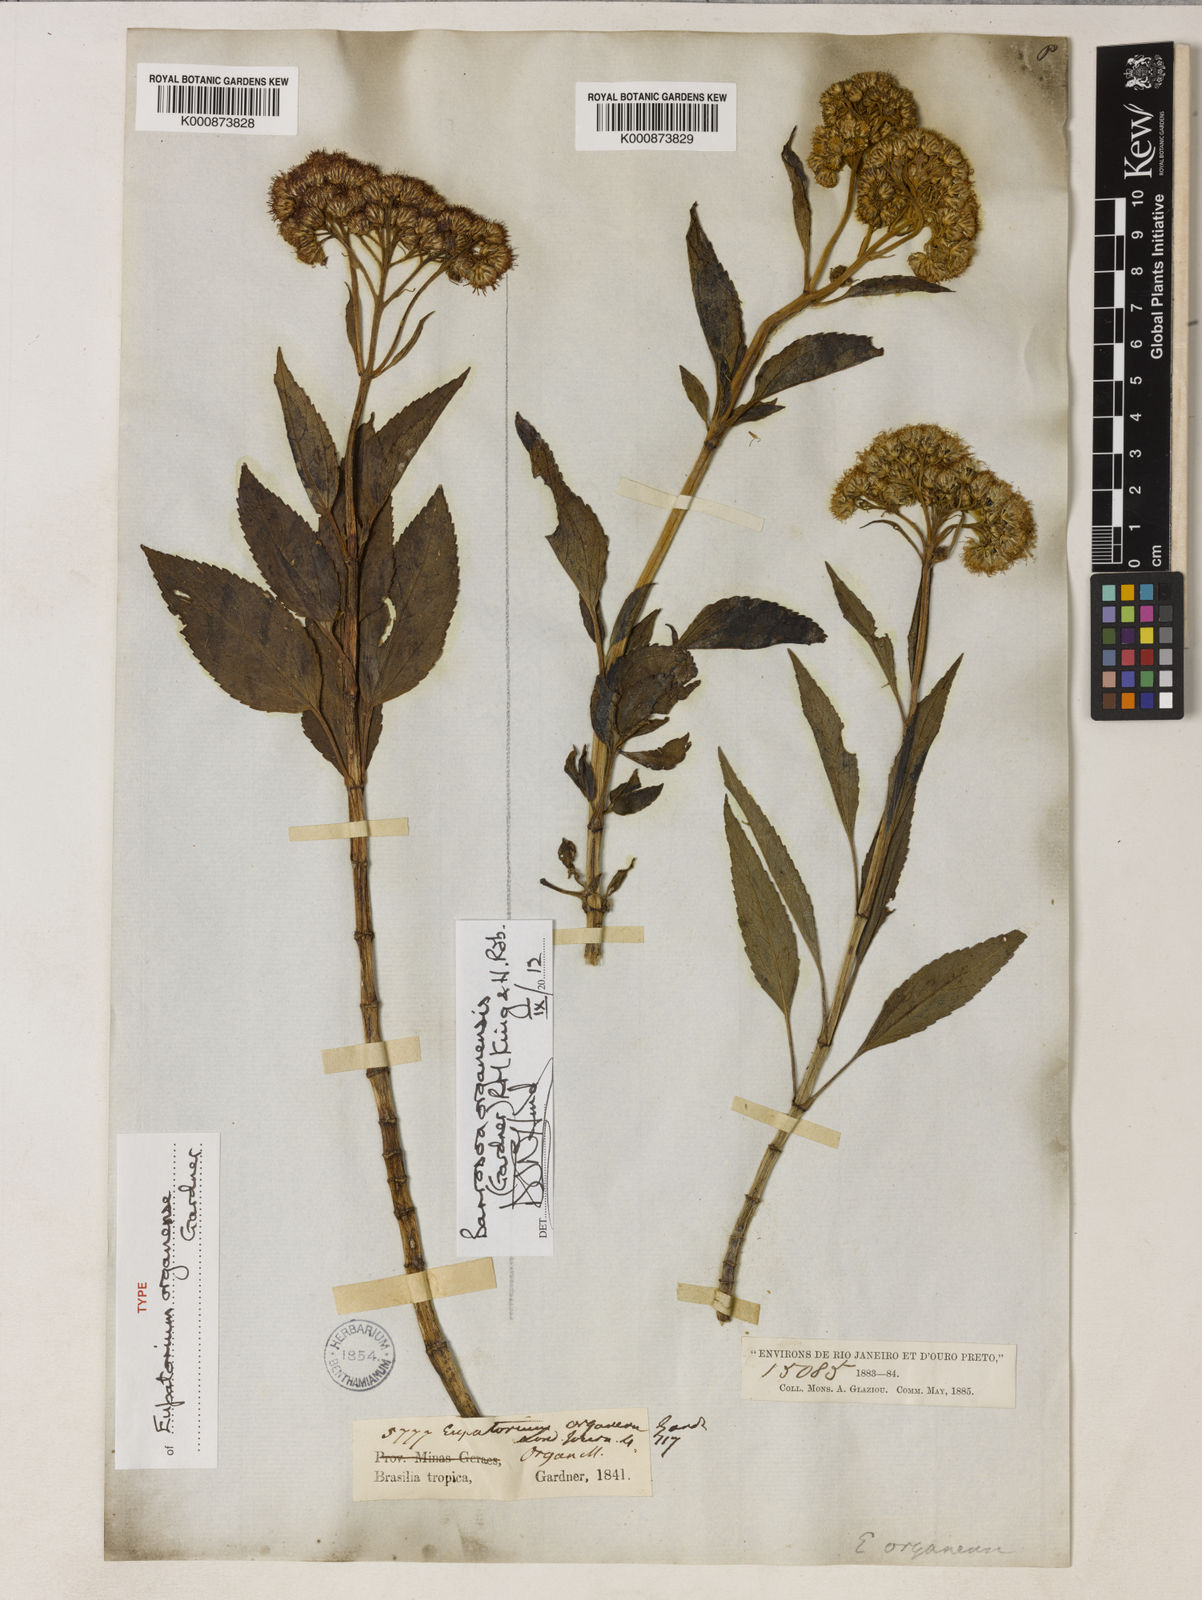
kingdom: Plantae
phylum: Tracheophyta
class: Magnoliopsida
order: Asterales
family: Asteraceae
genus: Barrosoa
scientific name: Barrosoa organensis
